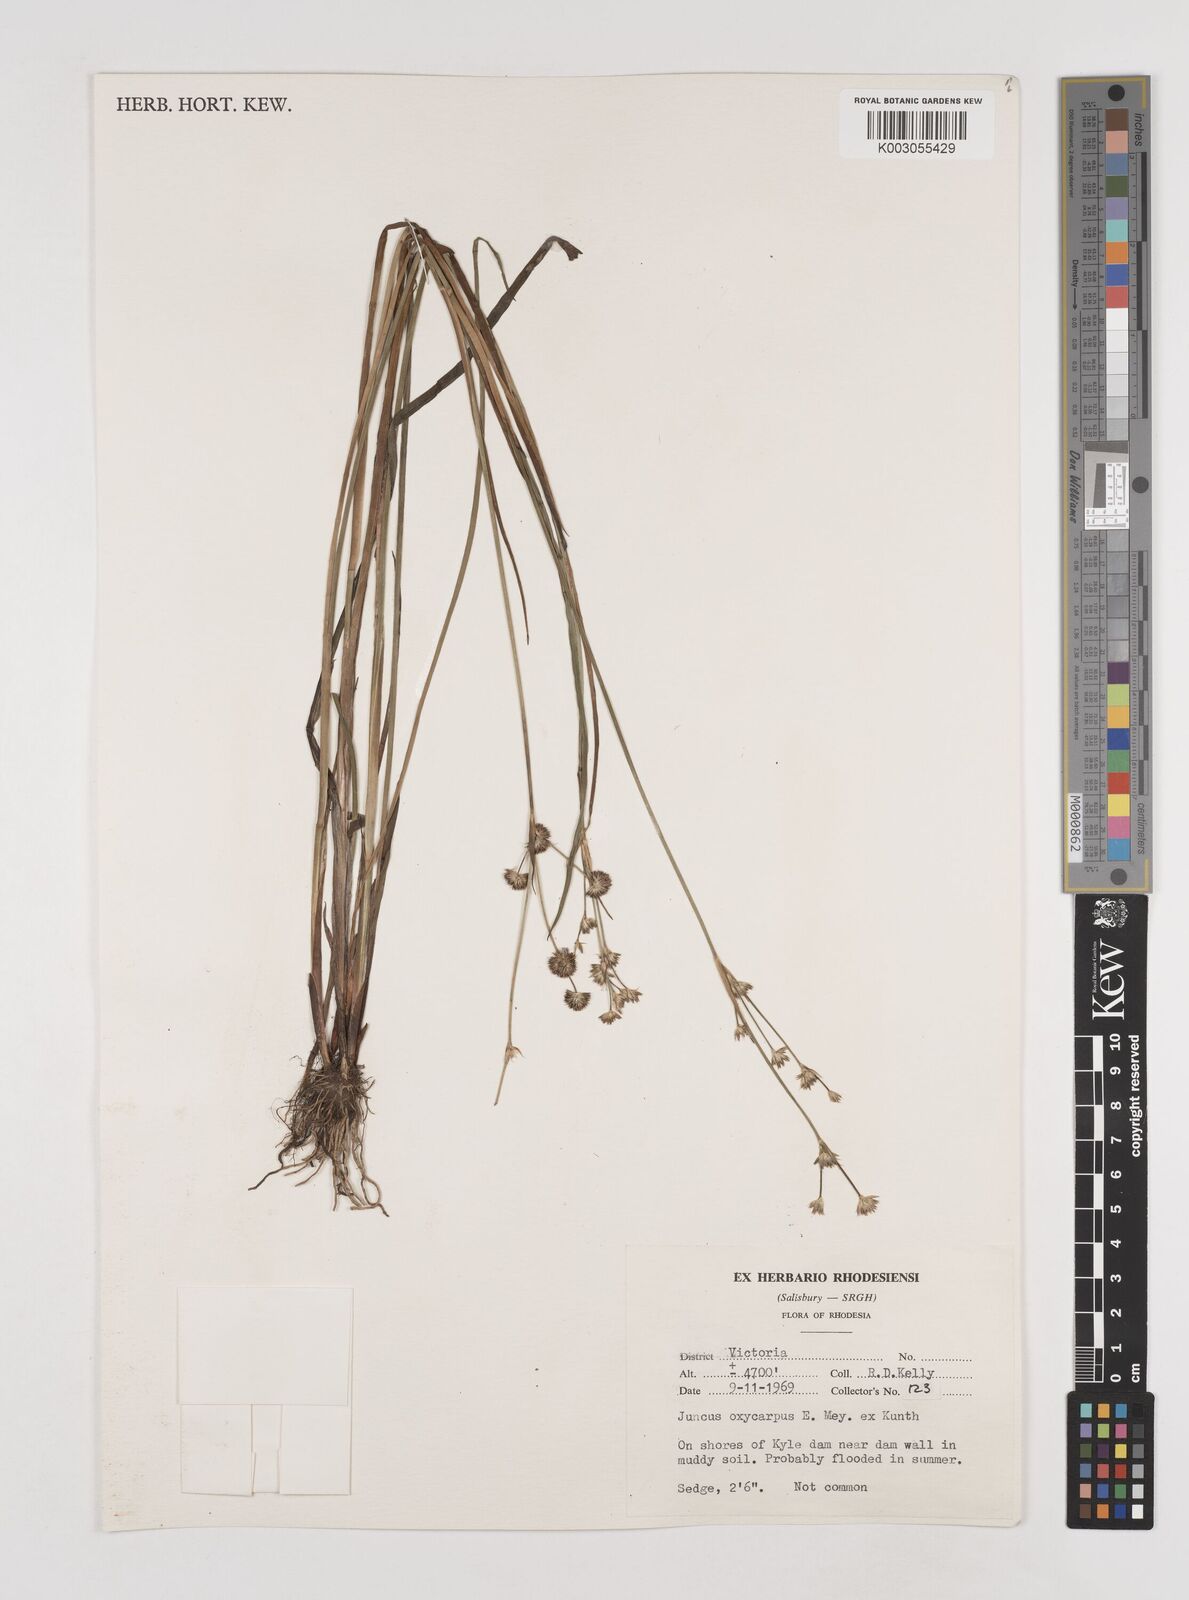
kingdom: Plantae
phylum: Tracheophyta
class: Liliopsida
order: Poales
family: Juncaceae
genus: Juncus
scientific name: Juncus oxycarpus
